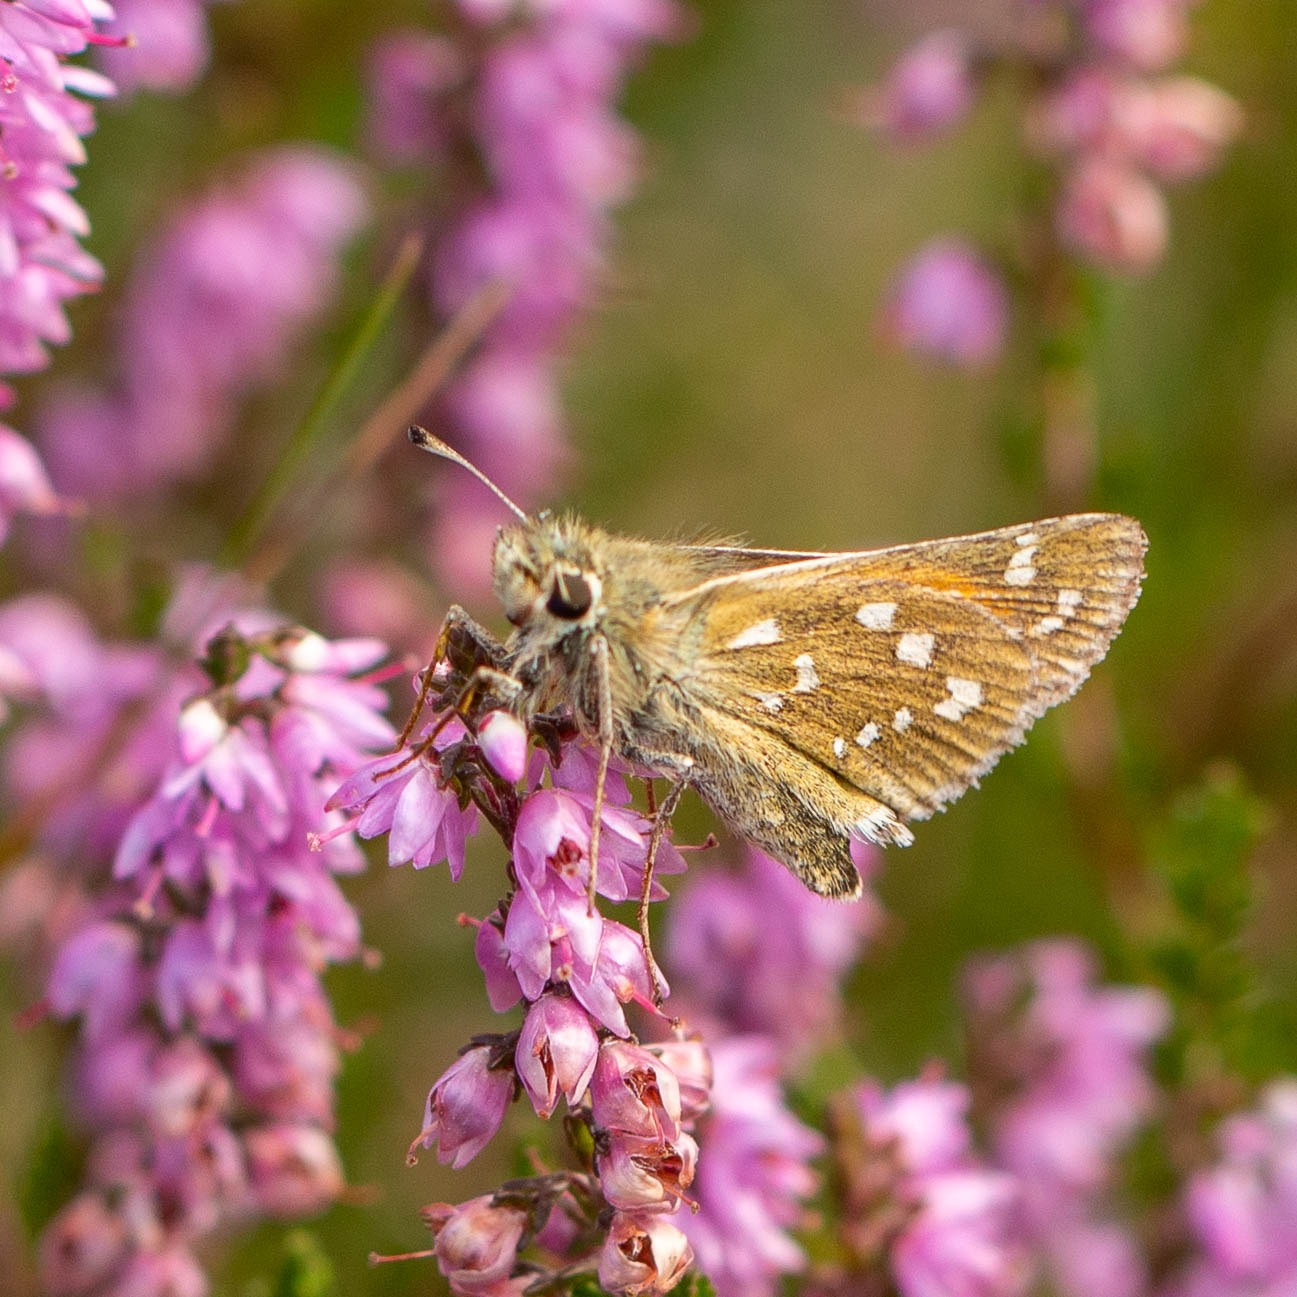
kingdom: Animalia
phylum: Arthropoda
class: Insecta
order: Lepidoptera
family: Hesperiidae
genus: Hesperia
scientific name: Hesperia comma
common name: Kommabredpande
